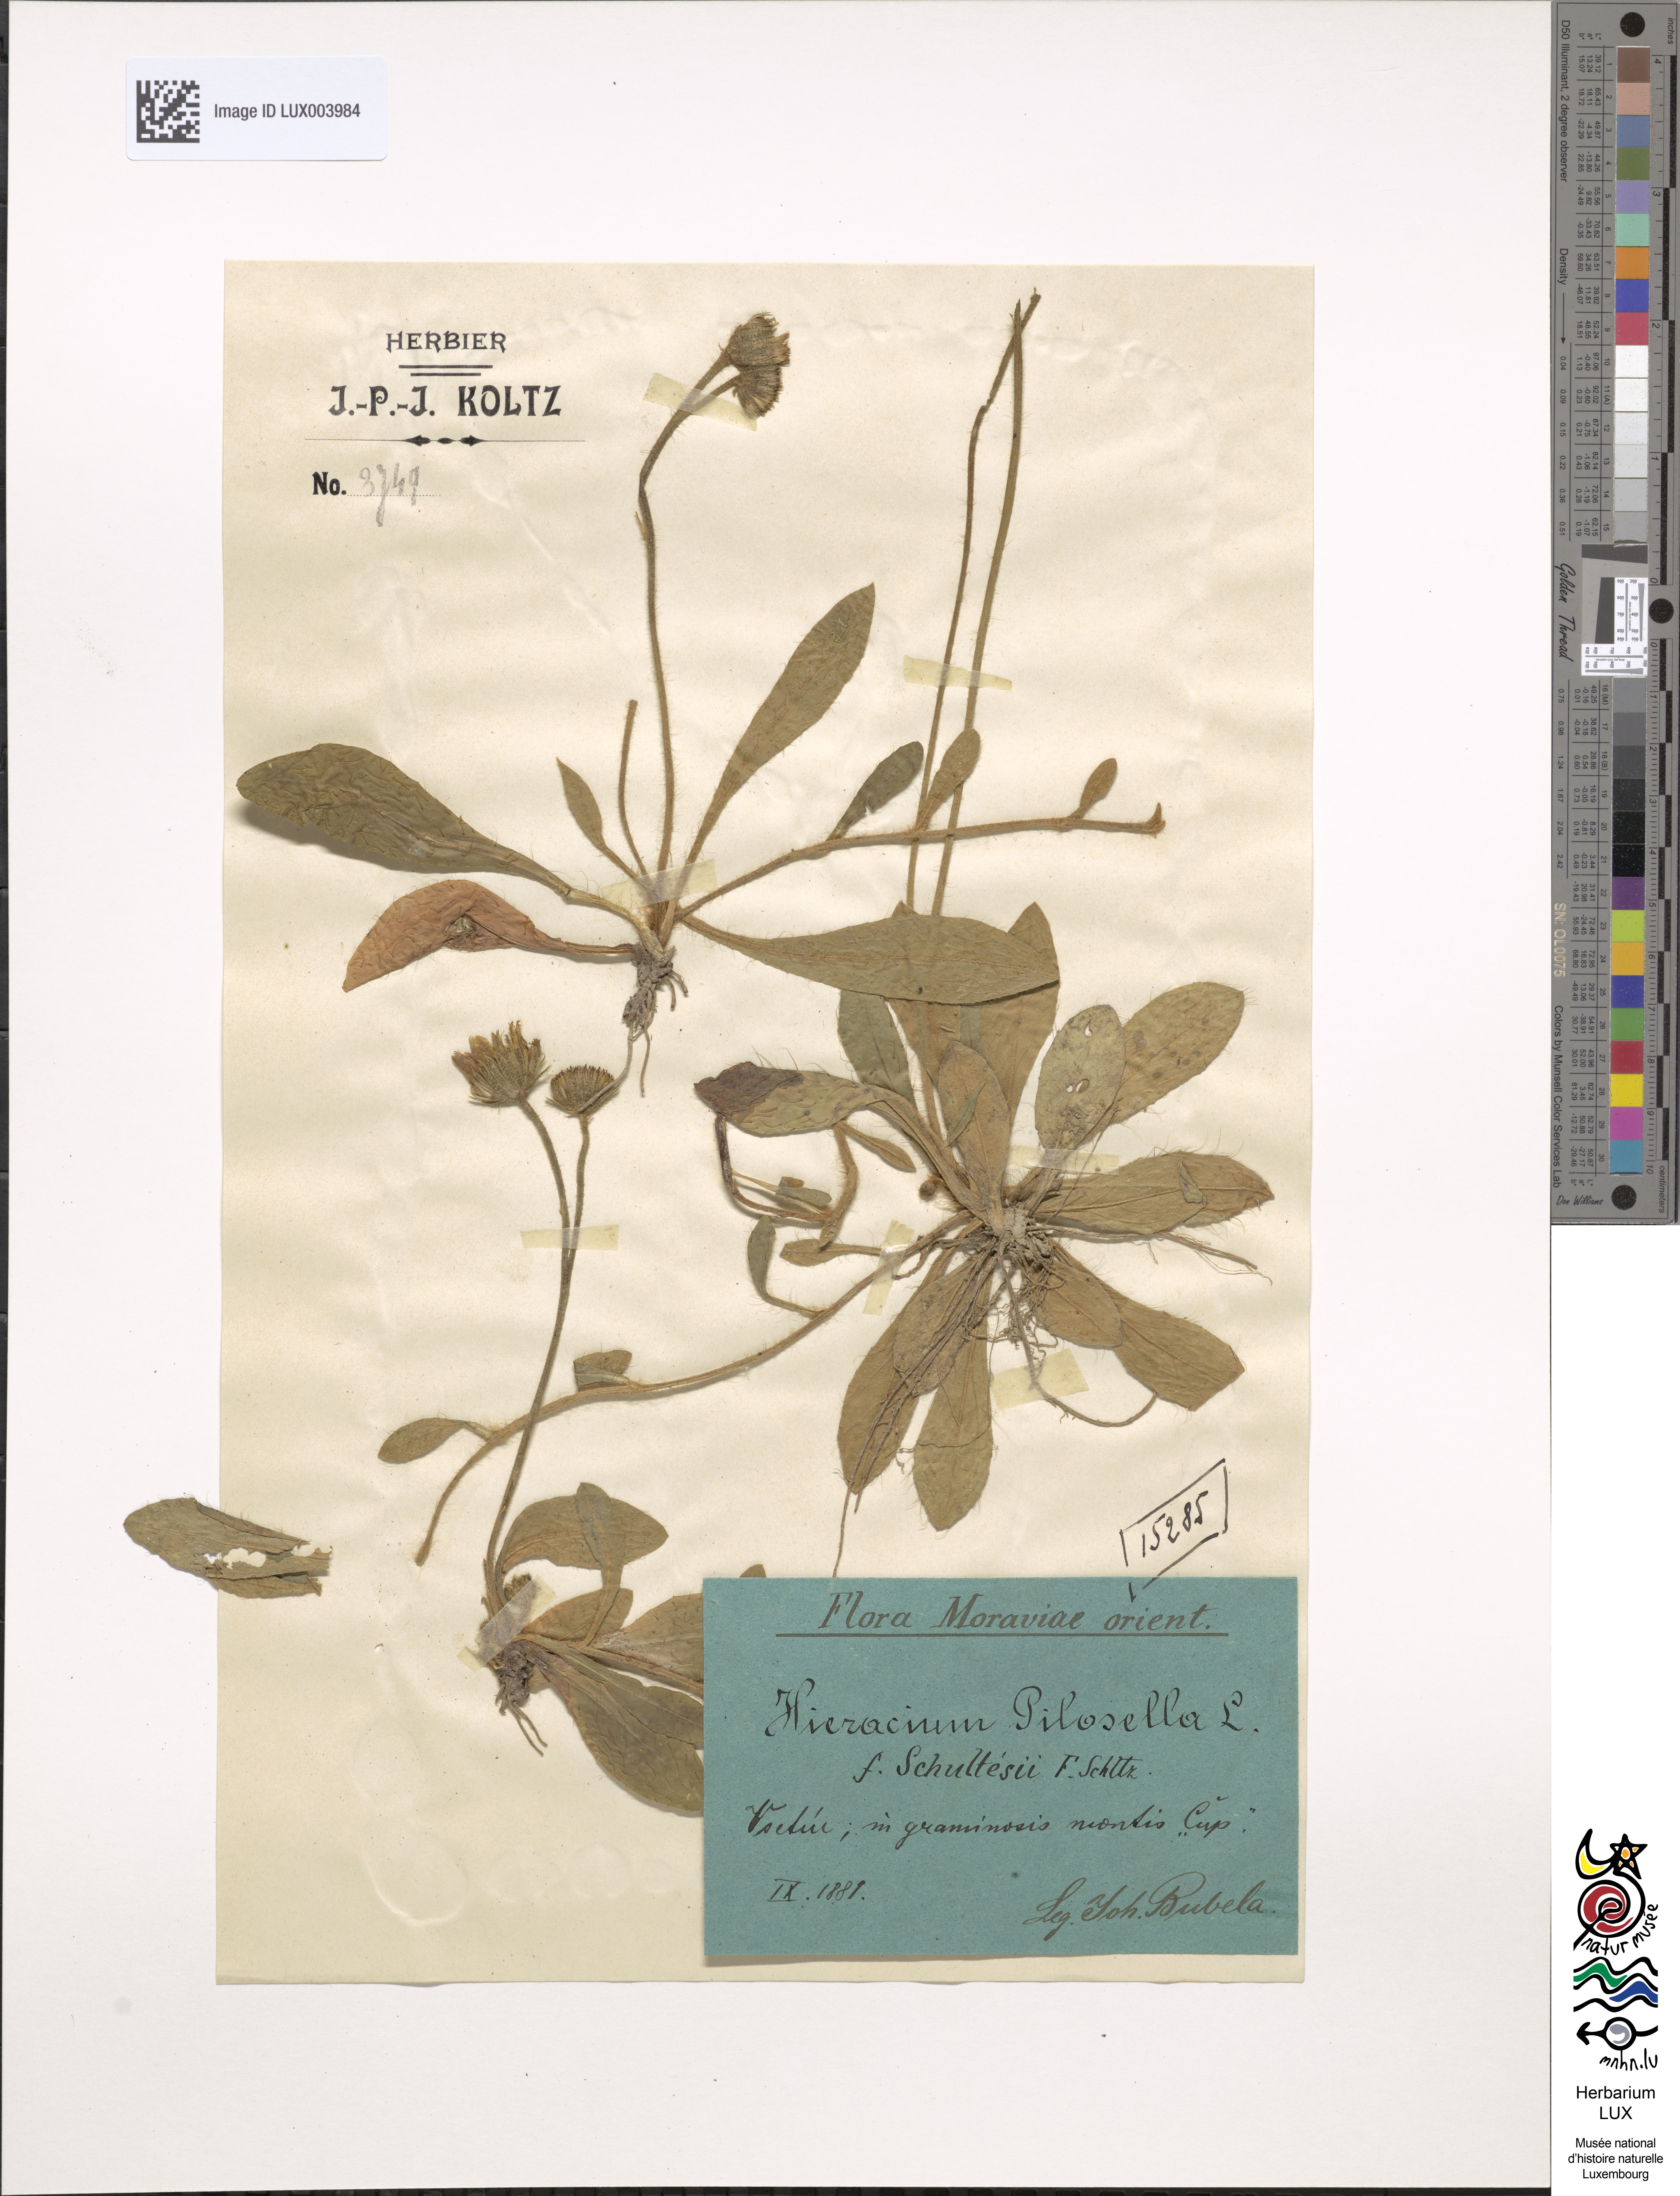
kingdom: Plantae
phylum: Tracheophyta
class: Magnoliopsida
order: Asterales
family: Asteraceae
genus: Pilosella
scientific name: Pilosella officinarum
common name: Mouse-ear hawkweed
